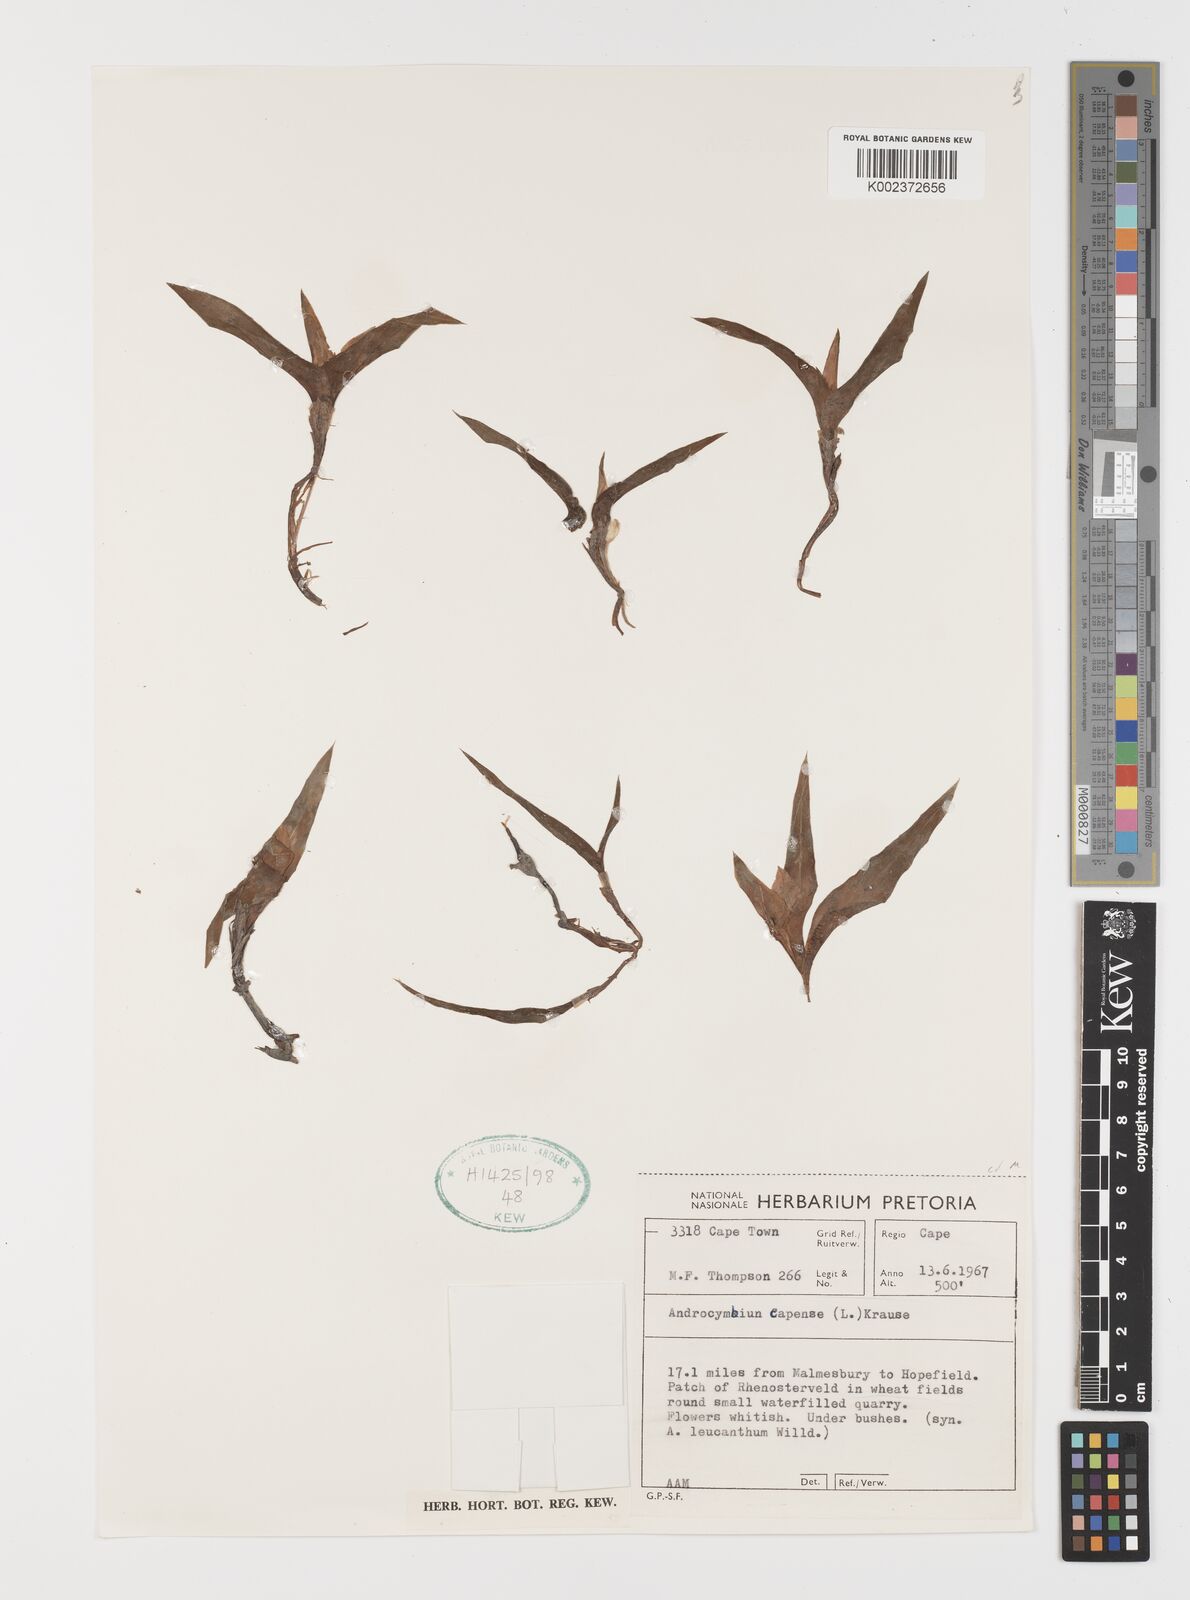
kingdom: Plantae
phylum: Tracheophyta
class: Liliopsida
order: Liliales
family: Colchicaceae
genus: Colchicum
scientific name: Colchicum capense
